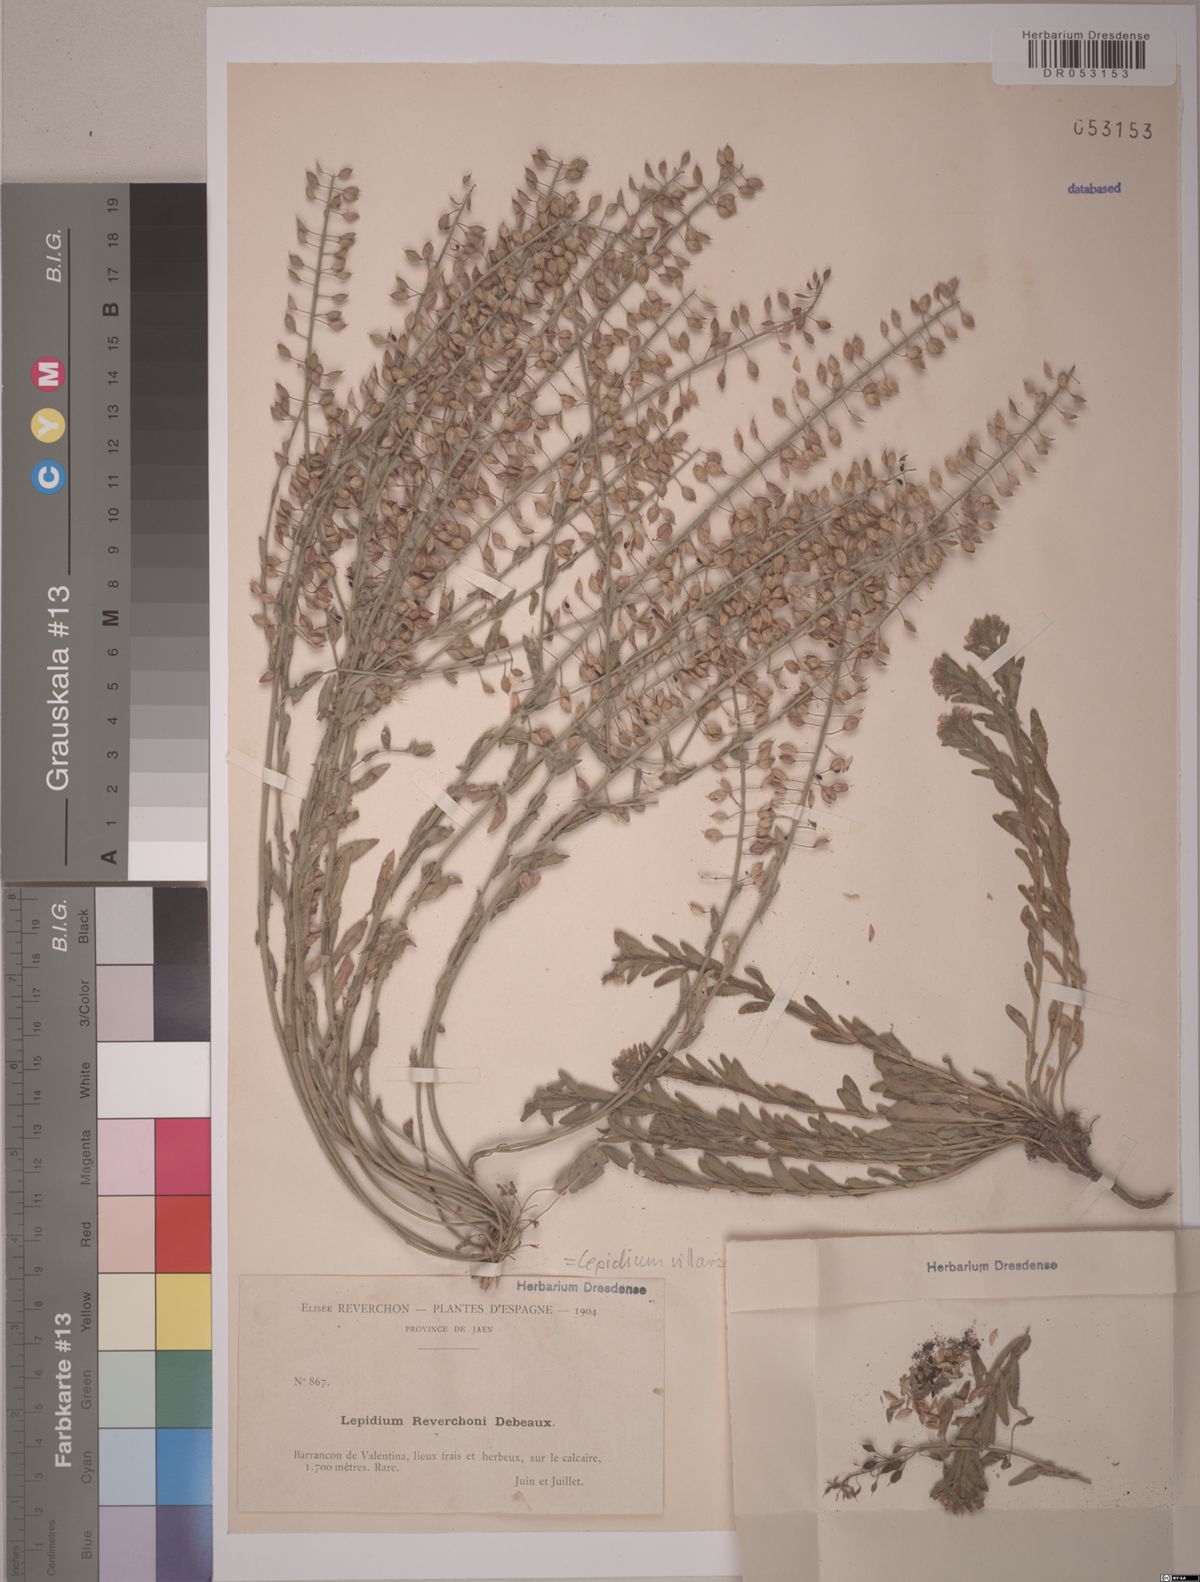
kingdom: Plantae
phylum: Tracheophyta
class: Magnoliopsida
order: Brassicales
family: Brassicaceae
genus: Lepidium
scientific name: Lepidium villarsii
